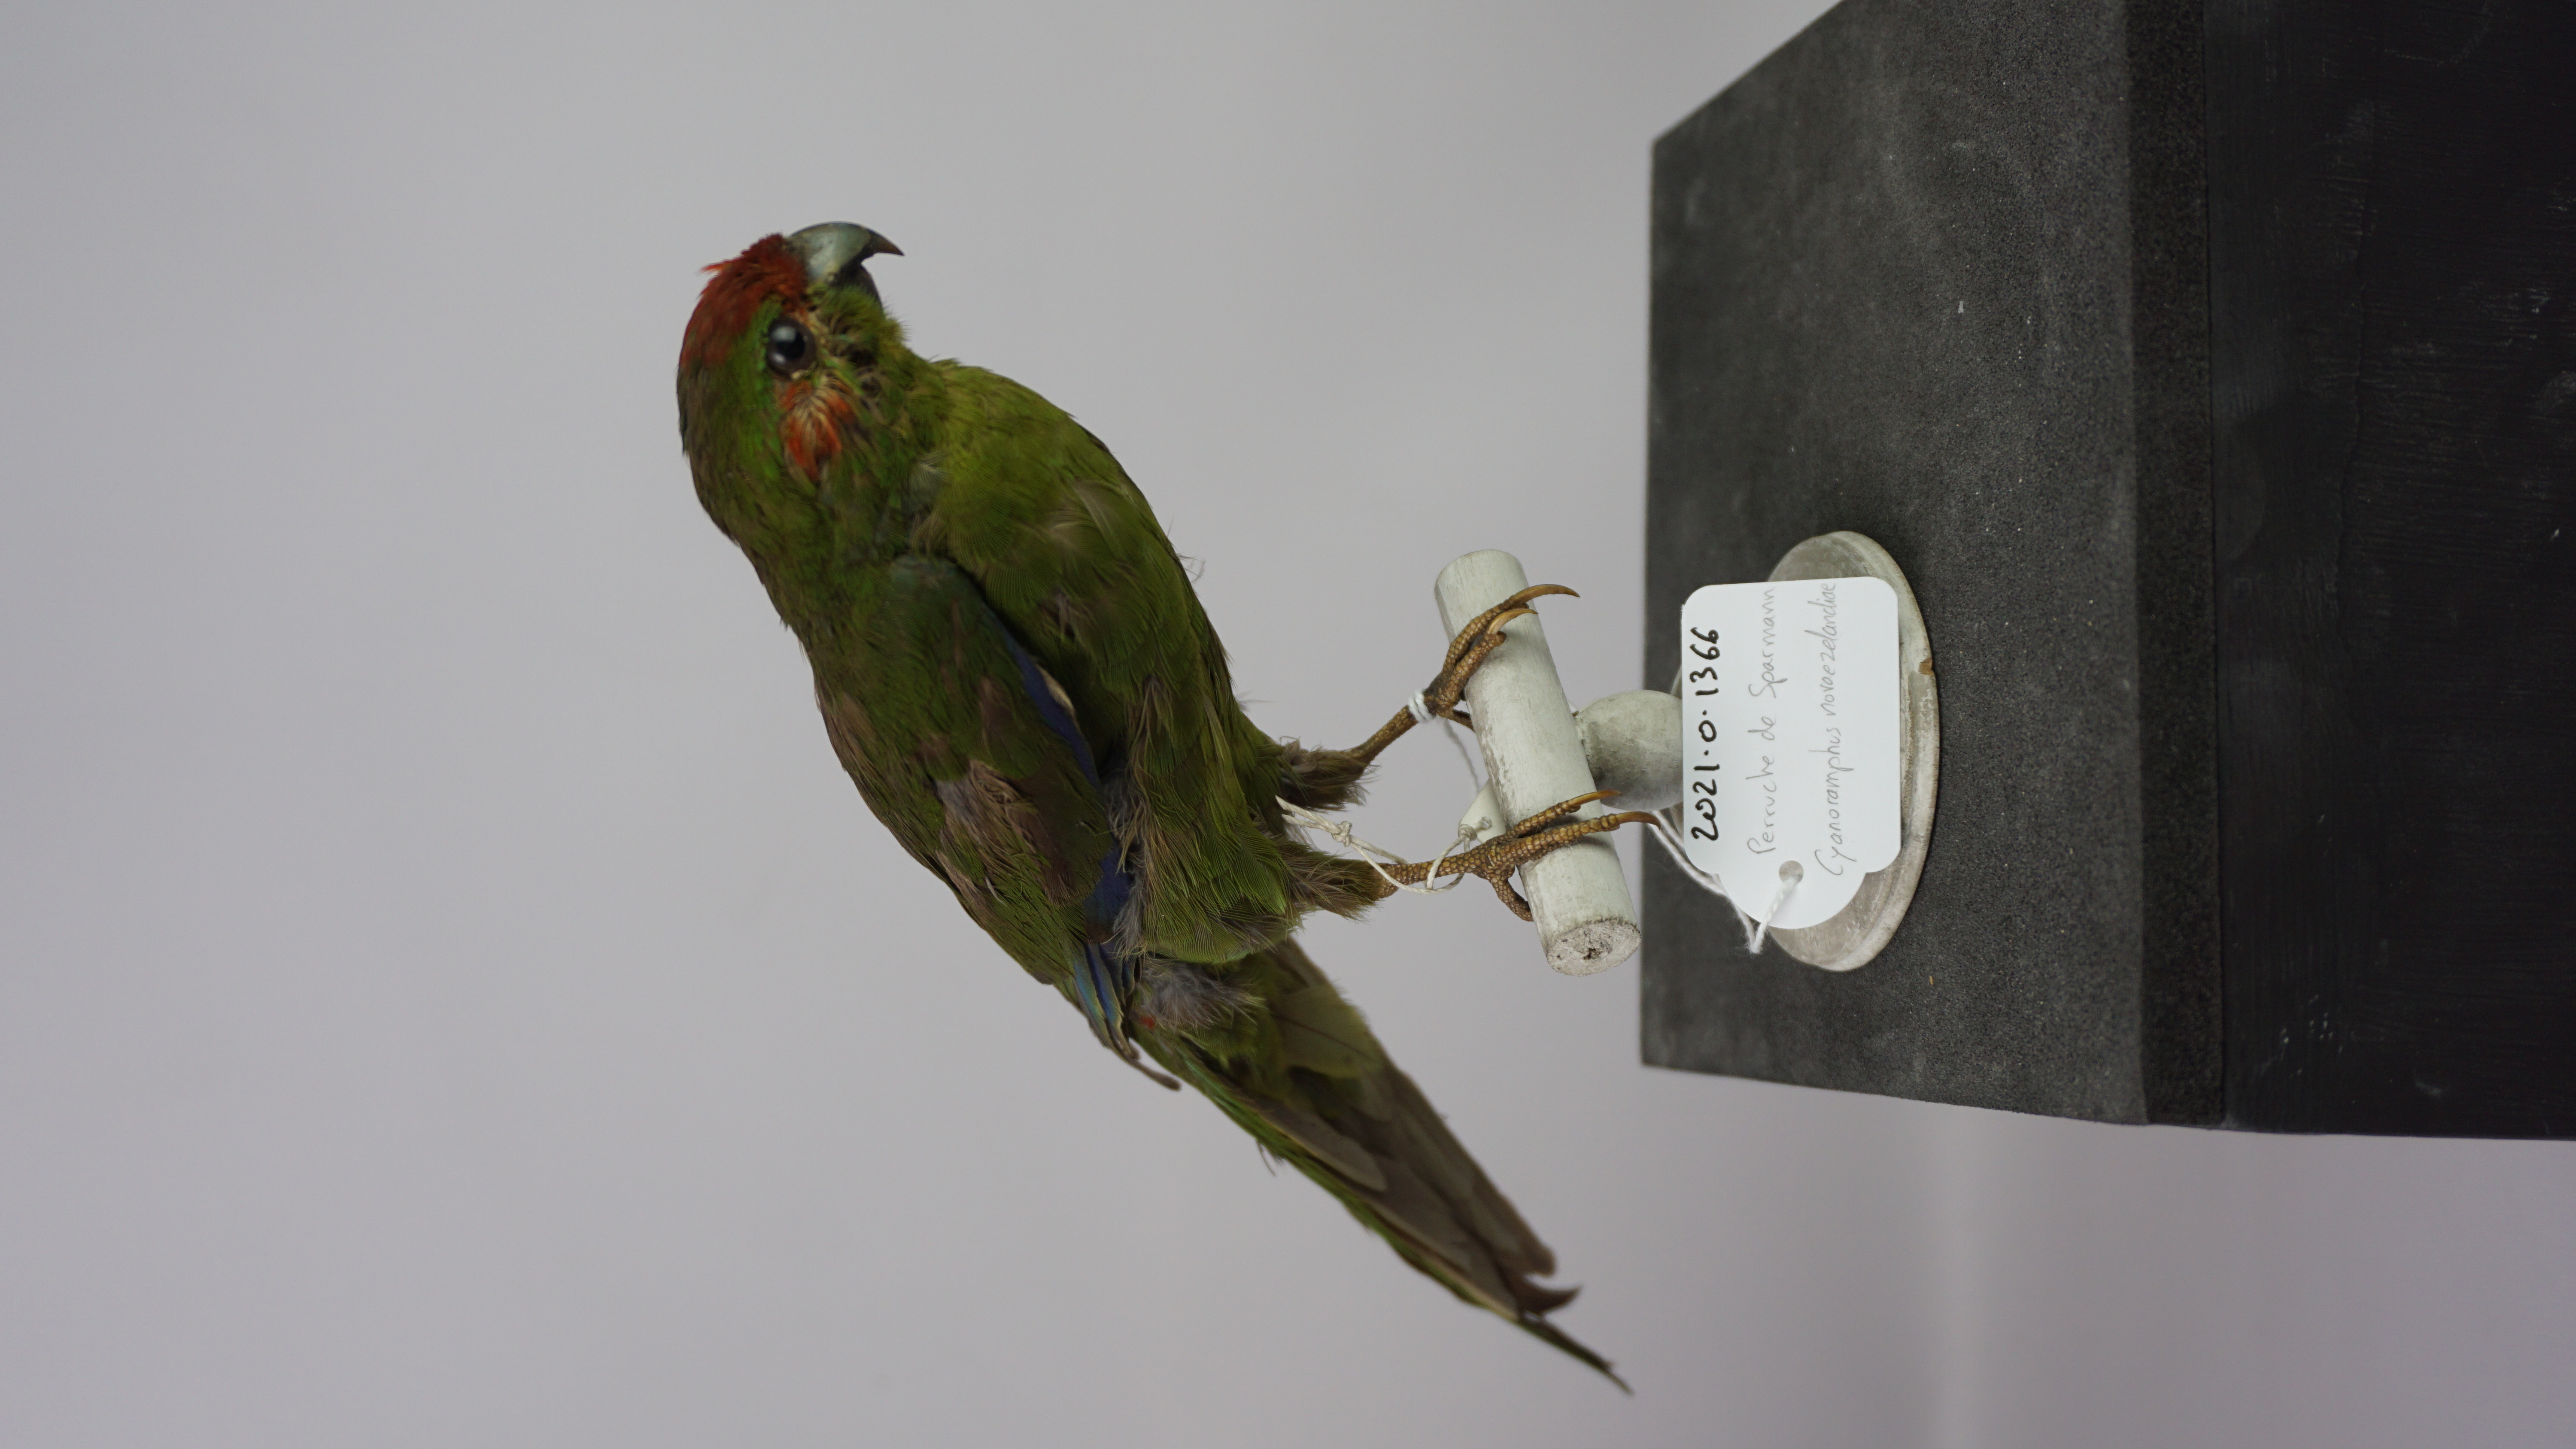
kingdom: Animalia
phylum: Chordata
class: Aves
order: Psittaciformes
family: Psittacidae
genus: Cyanoramphus
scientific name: Cyanoramphus novaezelandiae
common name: Red-fronted parakeet
